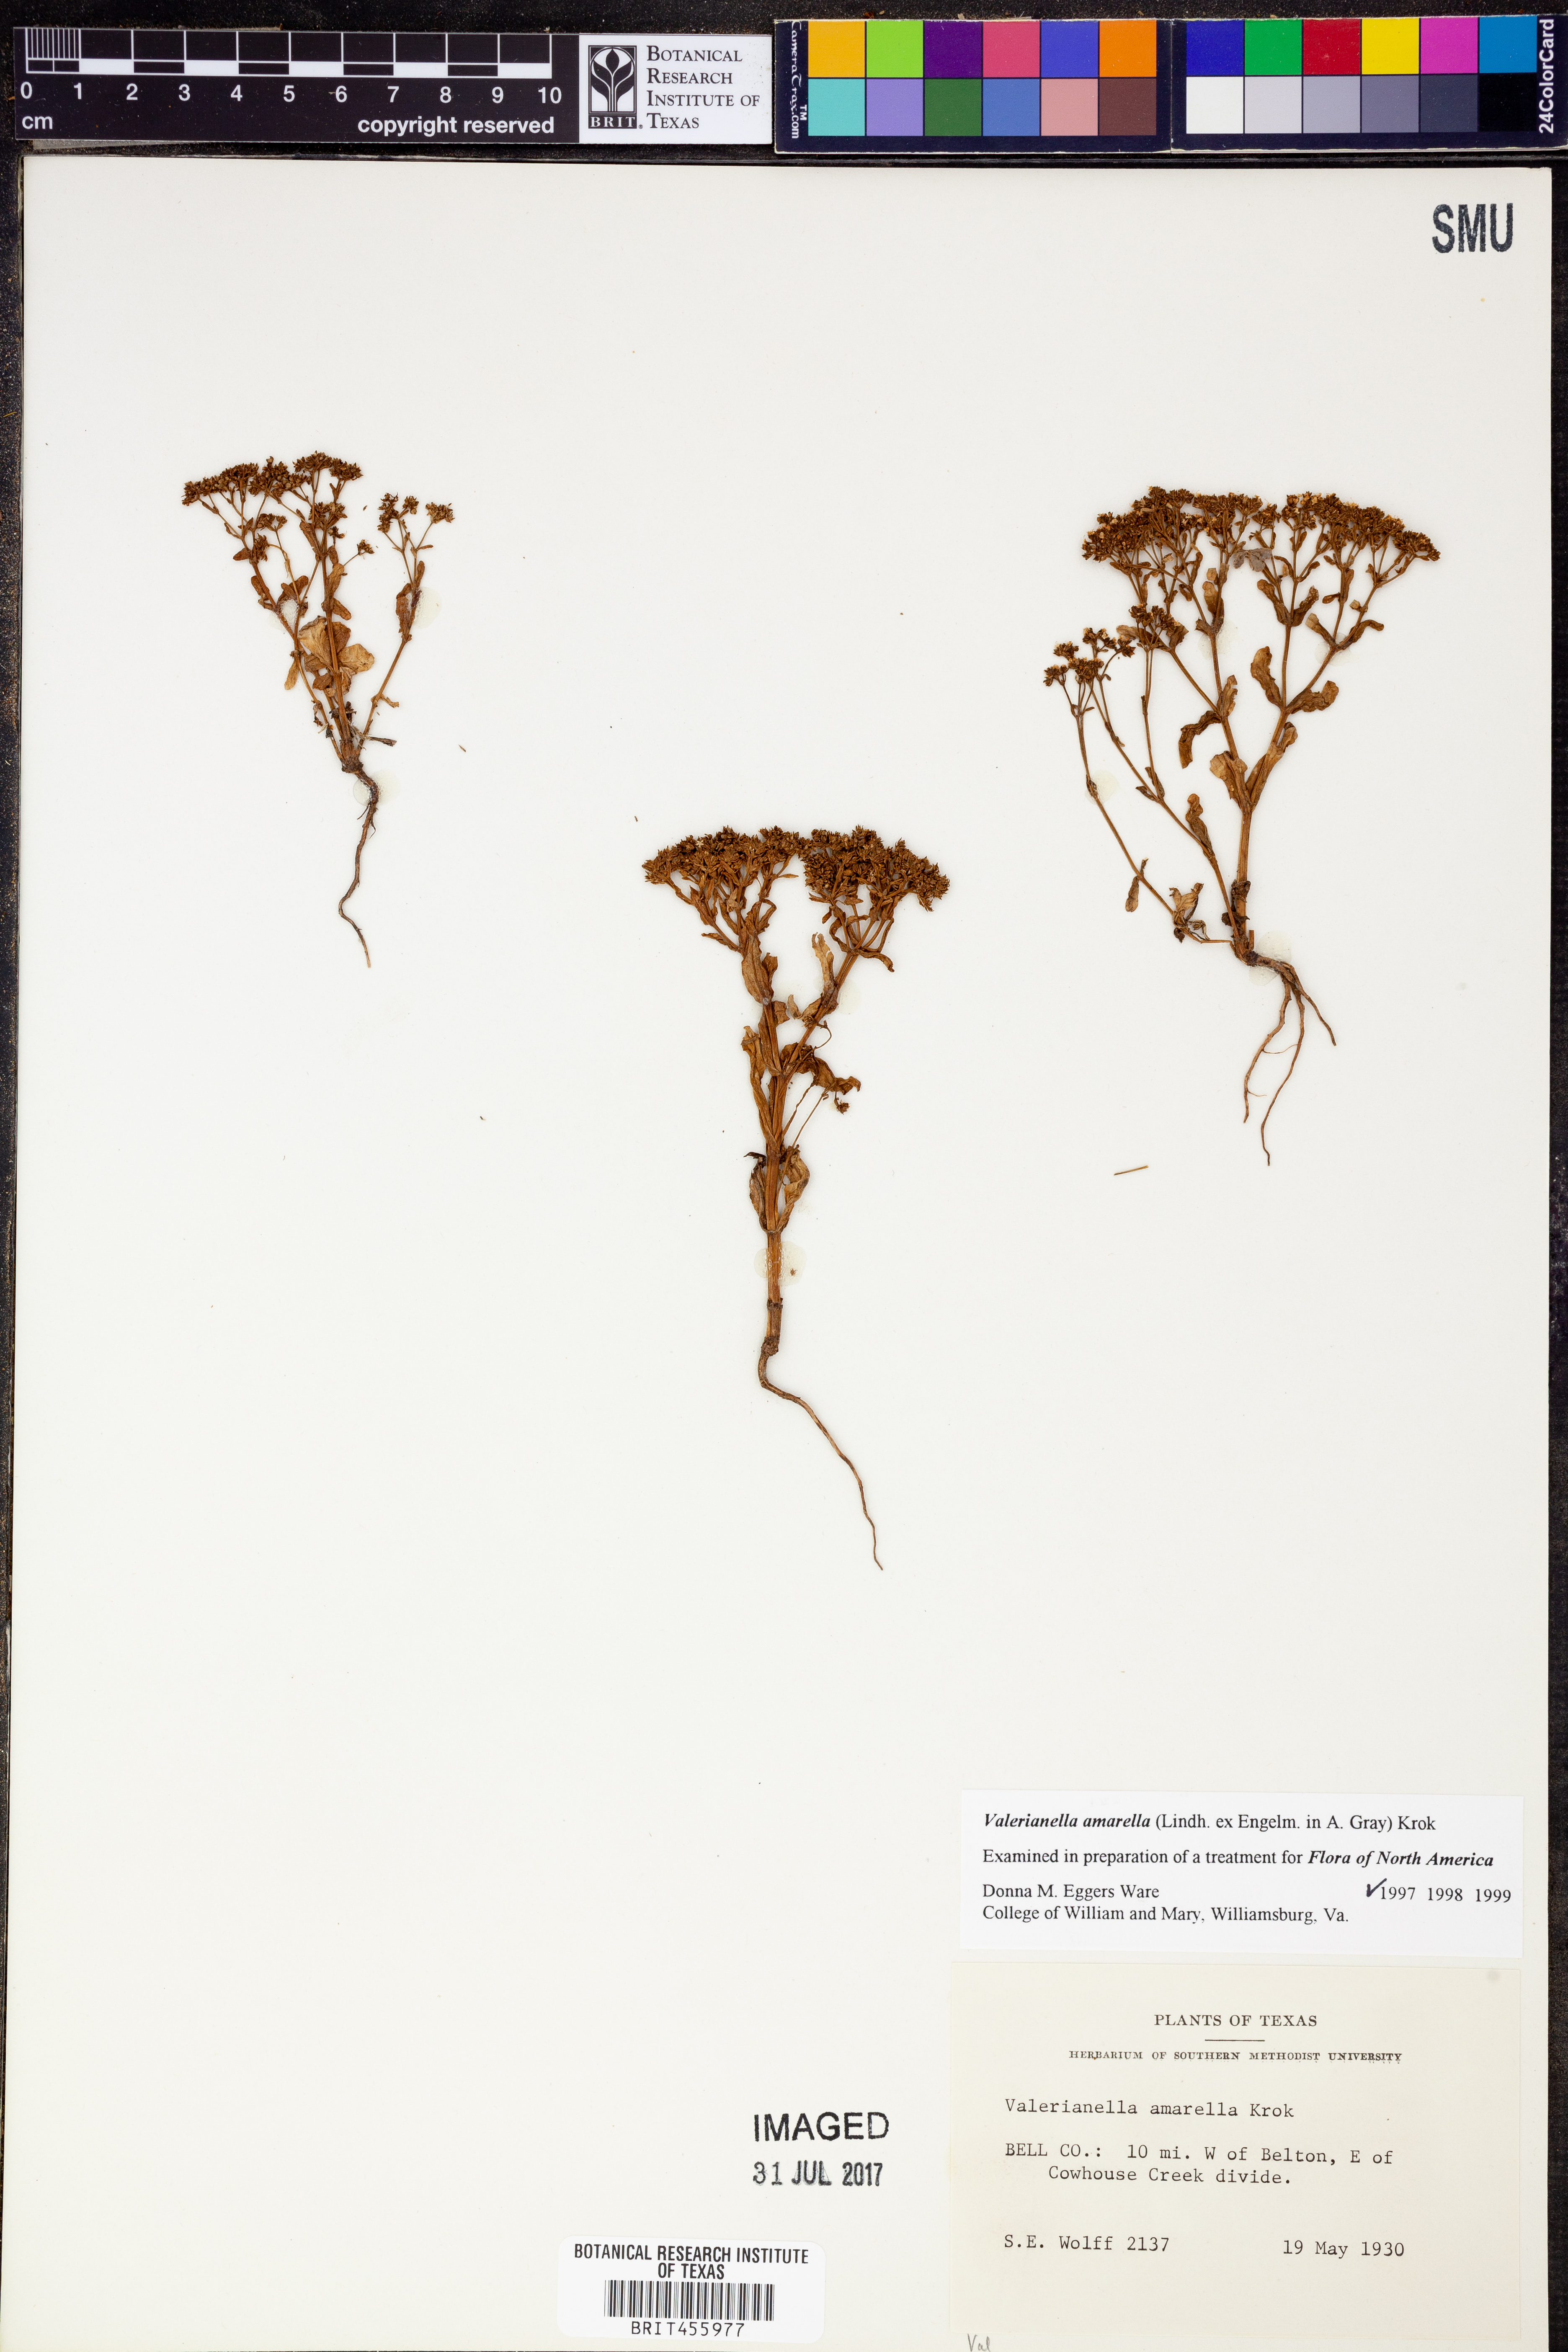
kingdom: Plantae
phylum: Tracheophyta
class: Magnoliopsida
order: Dipsacales
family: Caprifoliaceae
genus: Valerianella
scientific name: Valerianella amarella
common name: Hariy cornsalad
